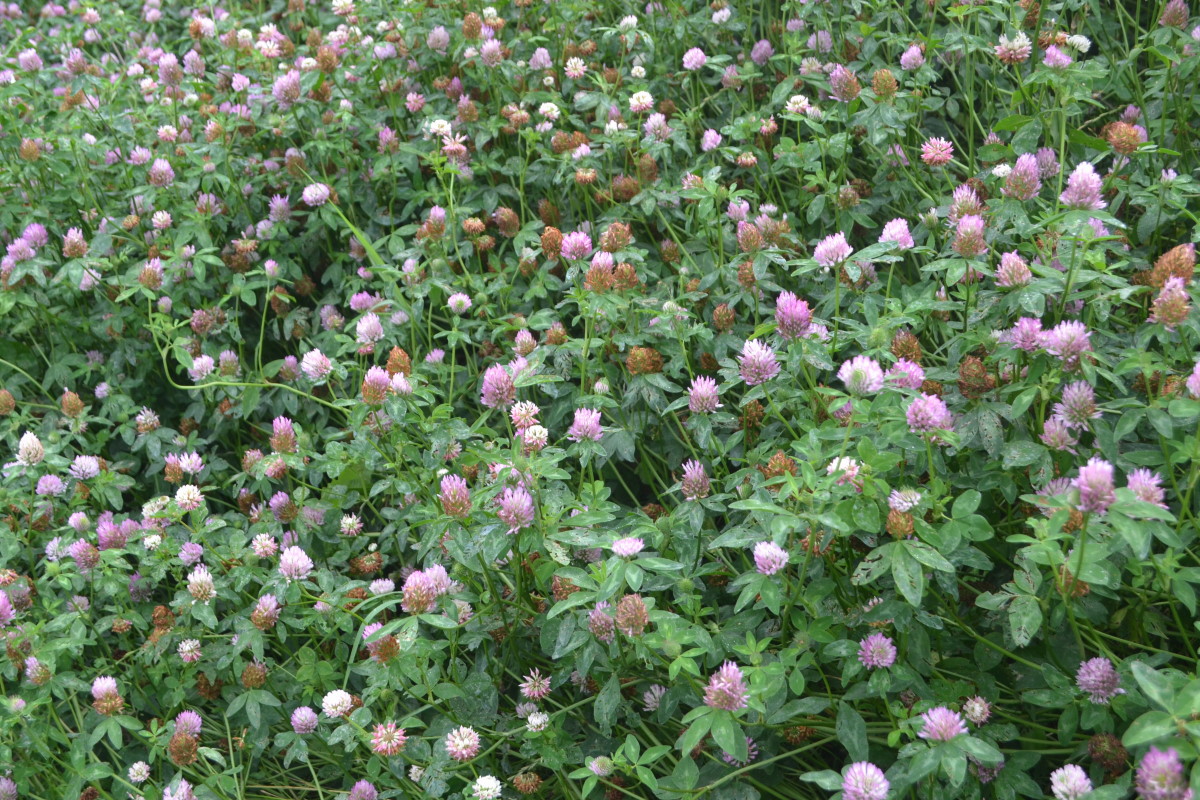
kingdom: Plantae
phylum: Tracheophyta
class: Magnoliopsida
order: Fabales
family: Fabaceae
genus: Trifolium
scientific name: Trifolium pratense
